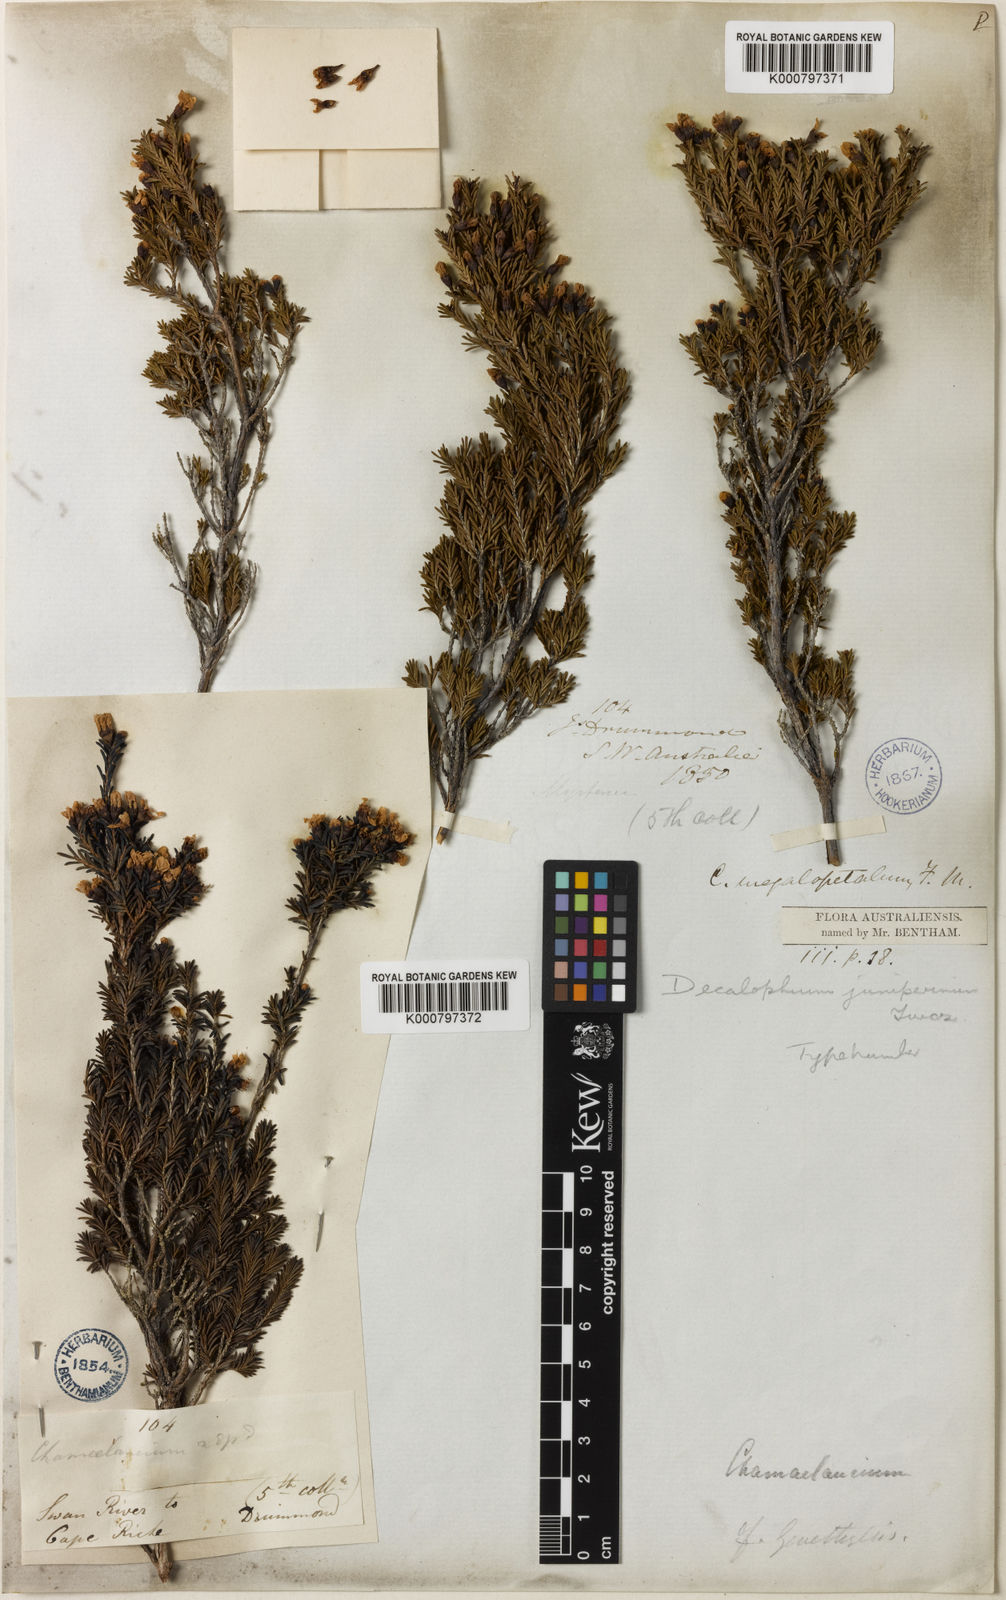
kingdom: Plantae
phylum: Tracheophyta
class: Magnoliopsida
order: Myrtales
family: Myrtaceae
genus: Chamelaucium
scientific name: Chamelaucium
